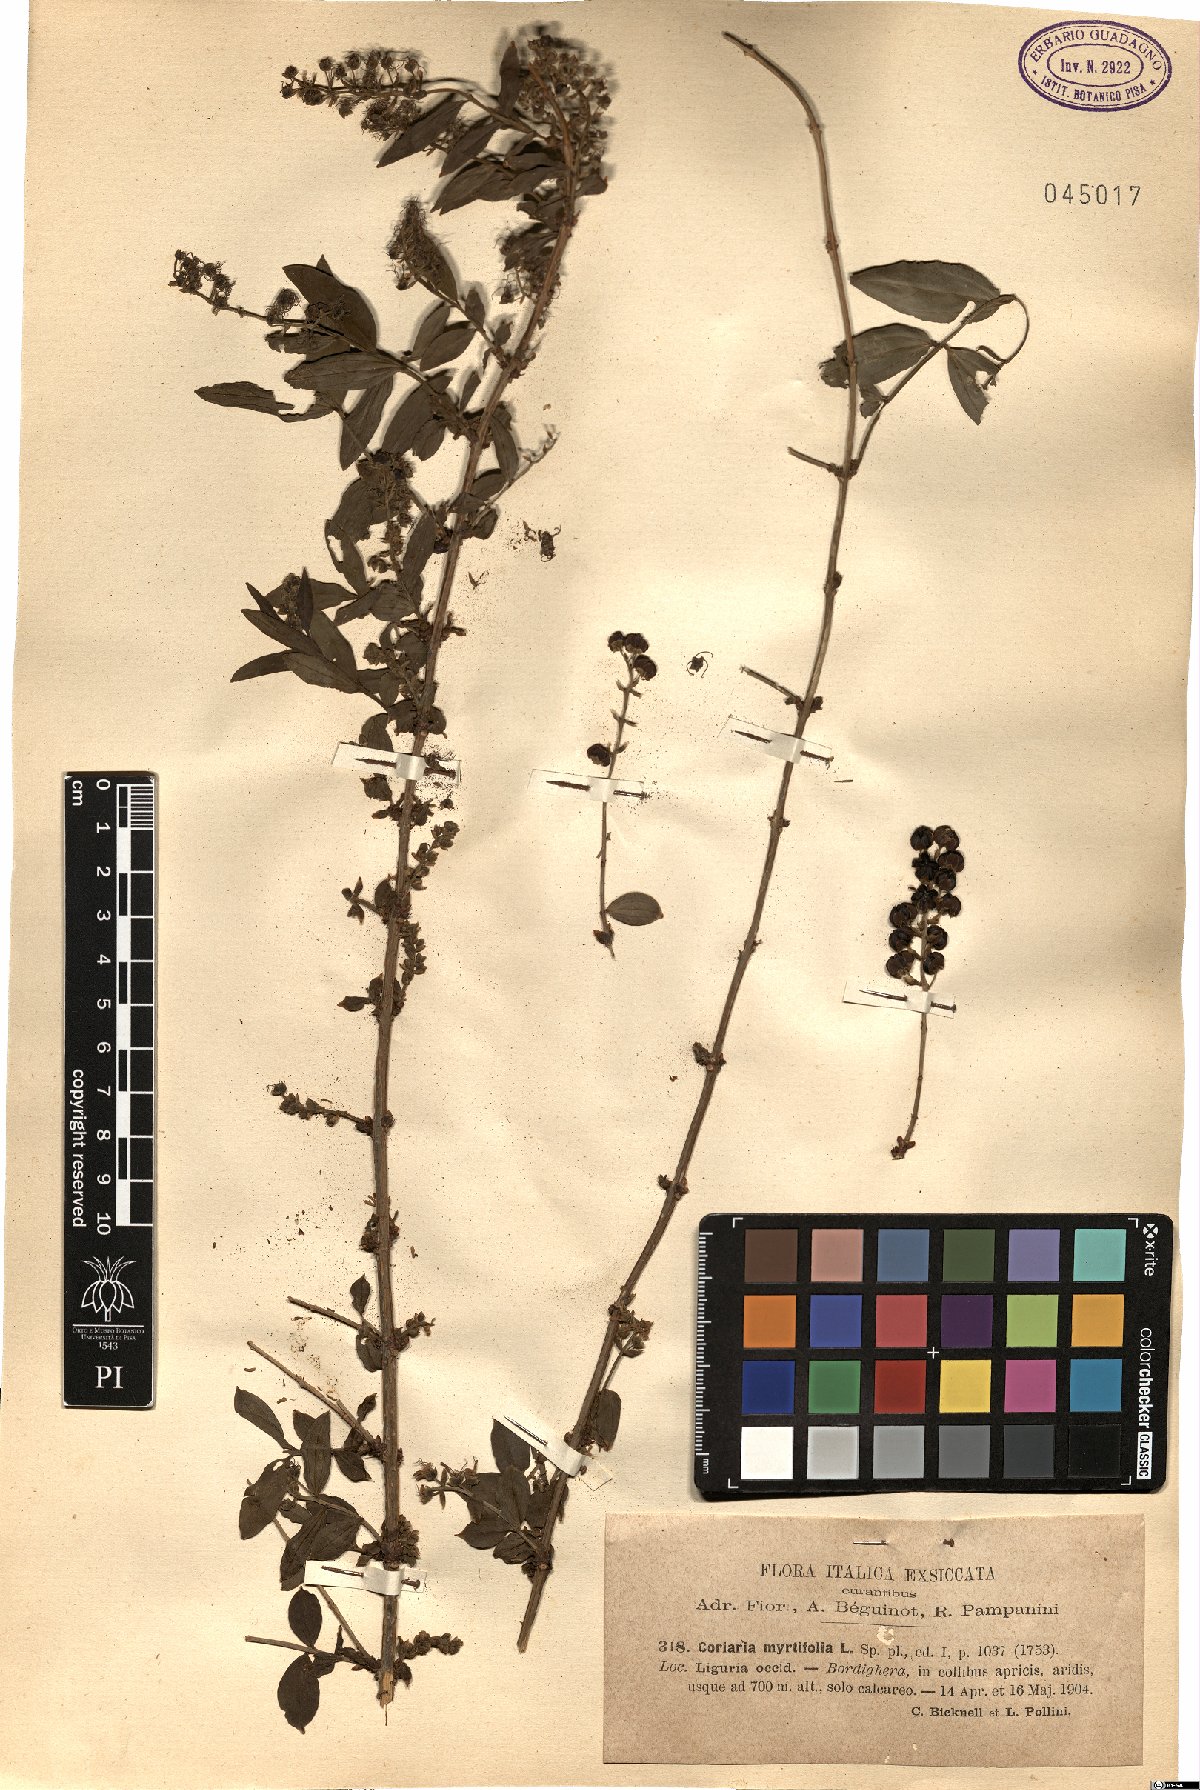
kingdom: Plantae
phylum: Tracheophyta
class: Magnoliopsida
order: Cucurbitales
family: Coriariaceae
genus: Coriaria
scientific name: Coriaria myrtifolia
